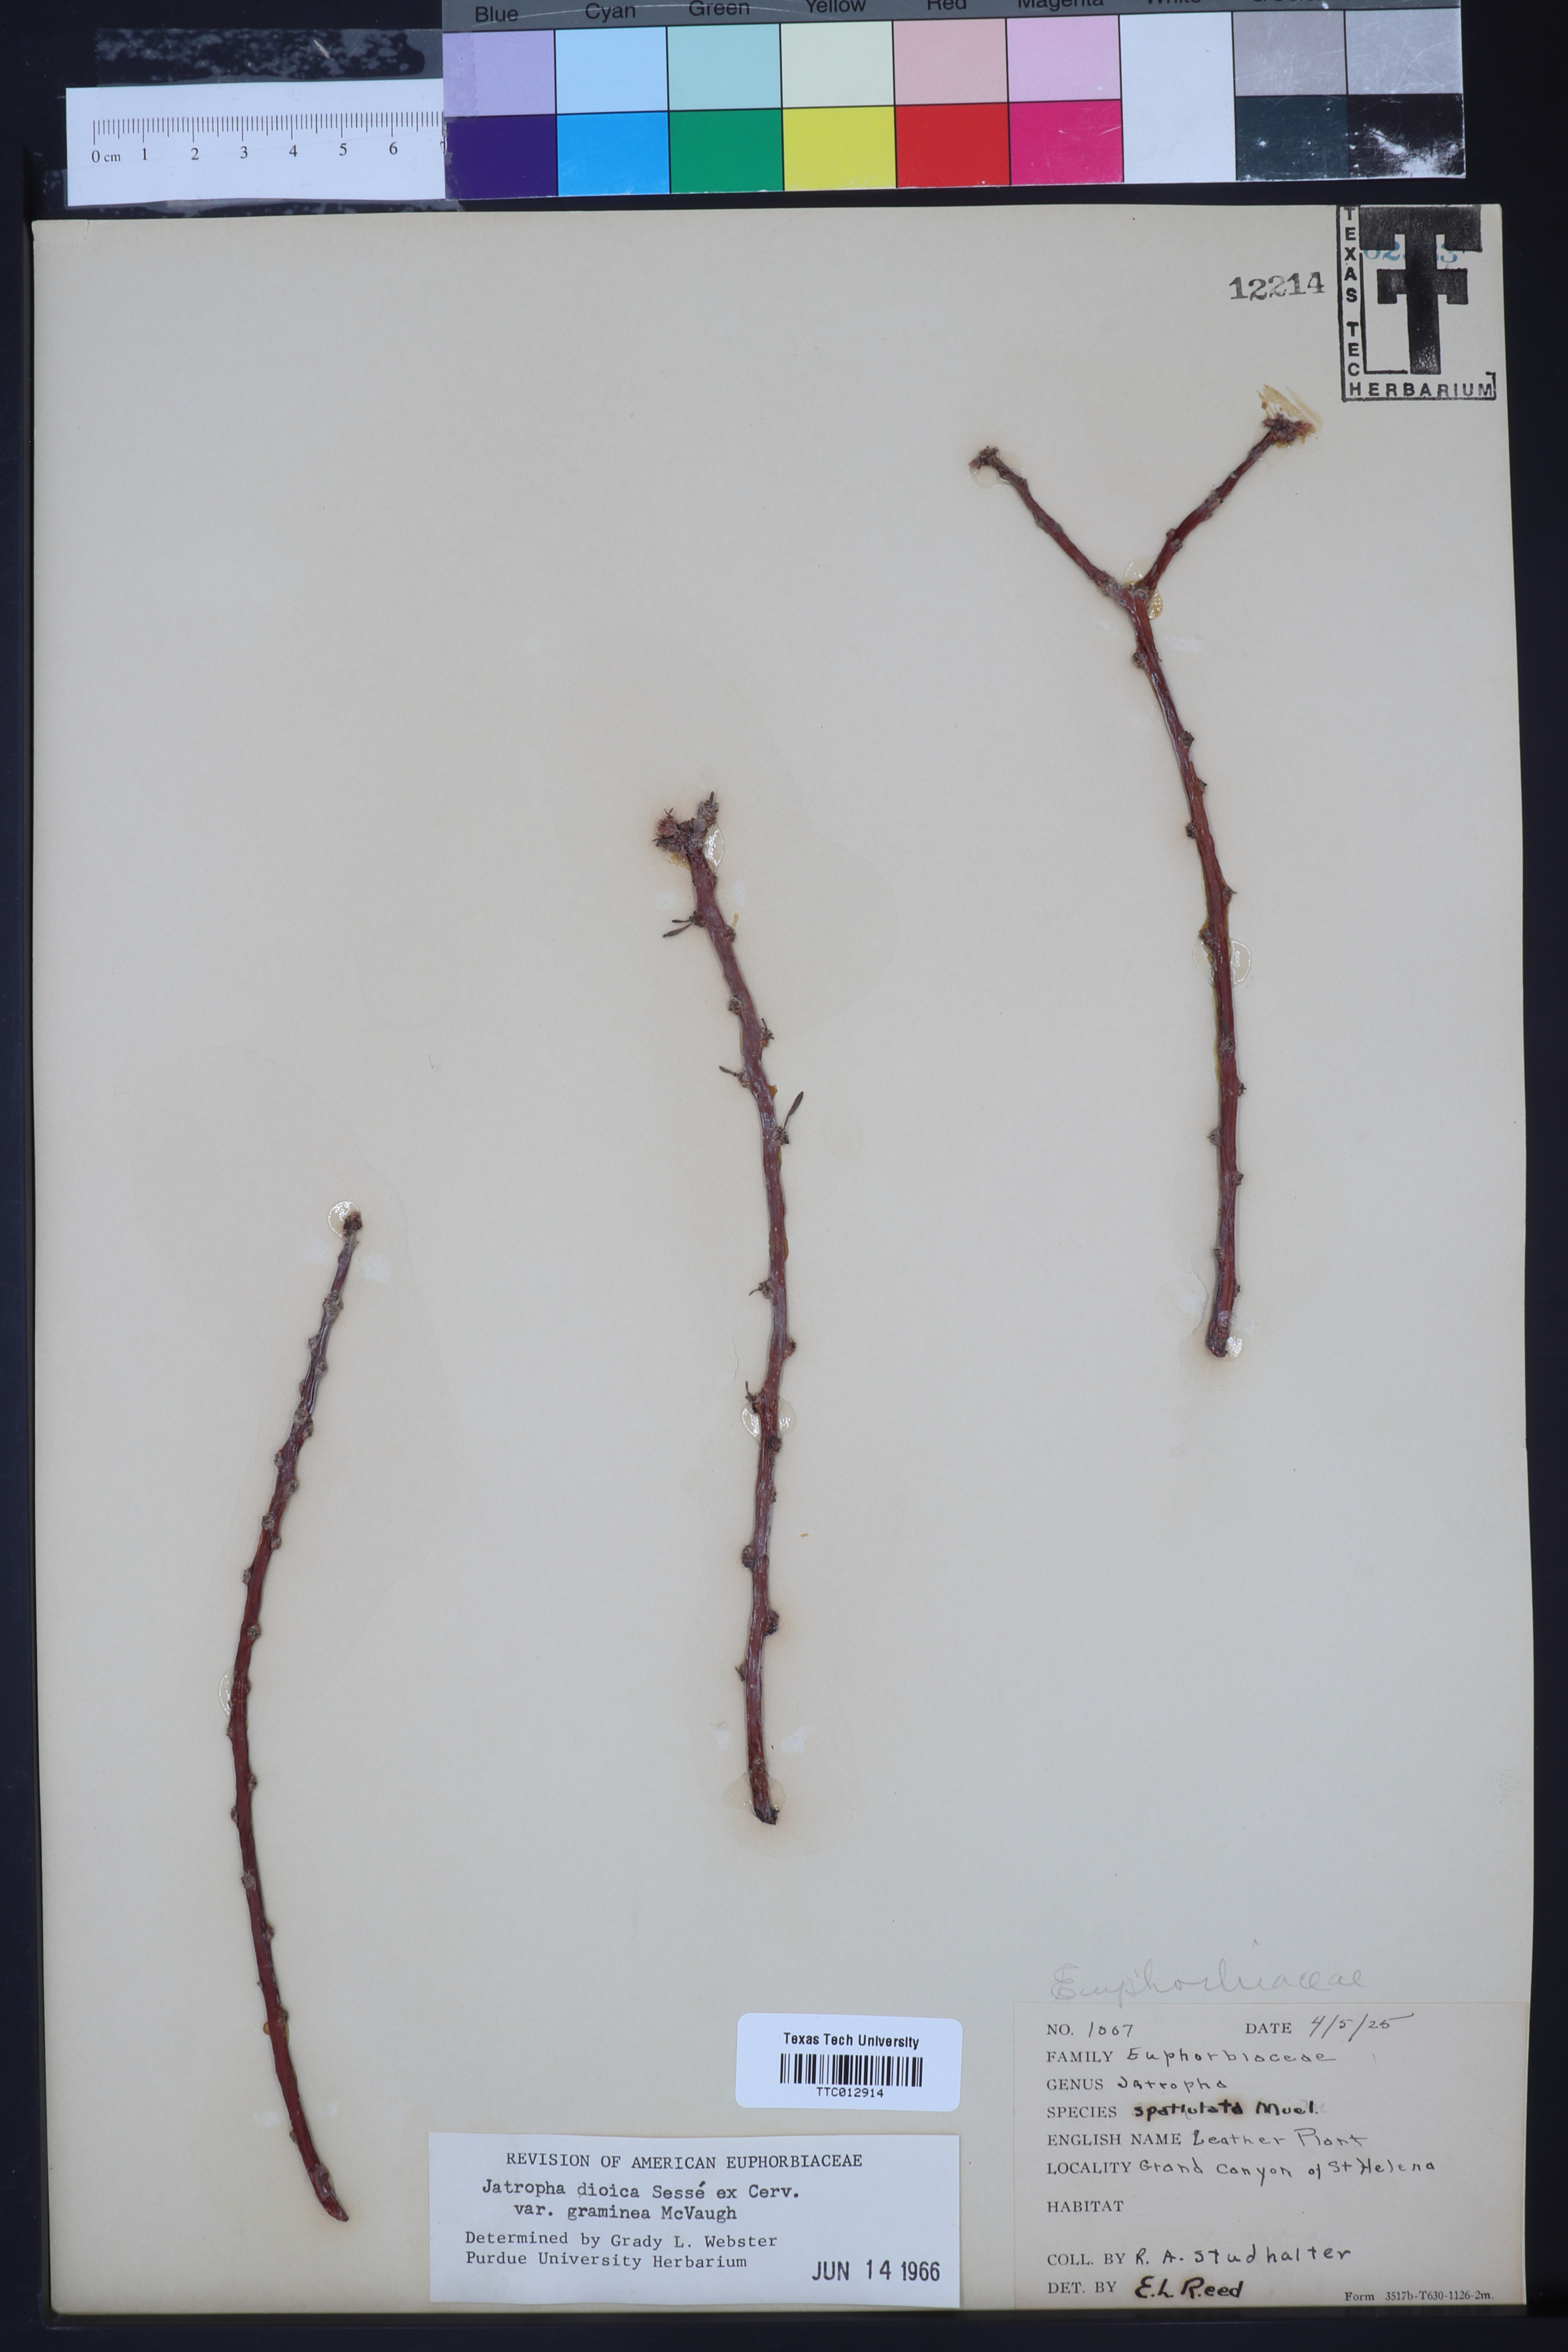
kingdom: Plantae
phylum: Tracheophyta
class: Magnoliopsida
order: Malpighiales
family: Euphorbiaceae
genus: Jatropha
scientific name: Jatropha dioica
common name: Leatherstem
